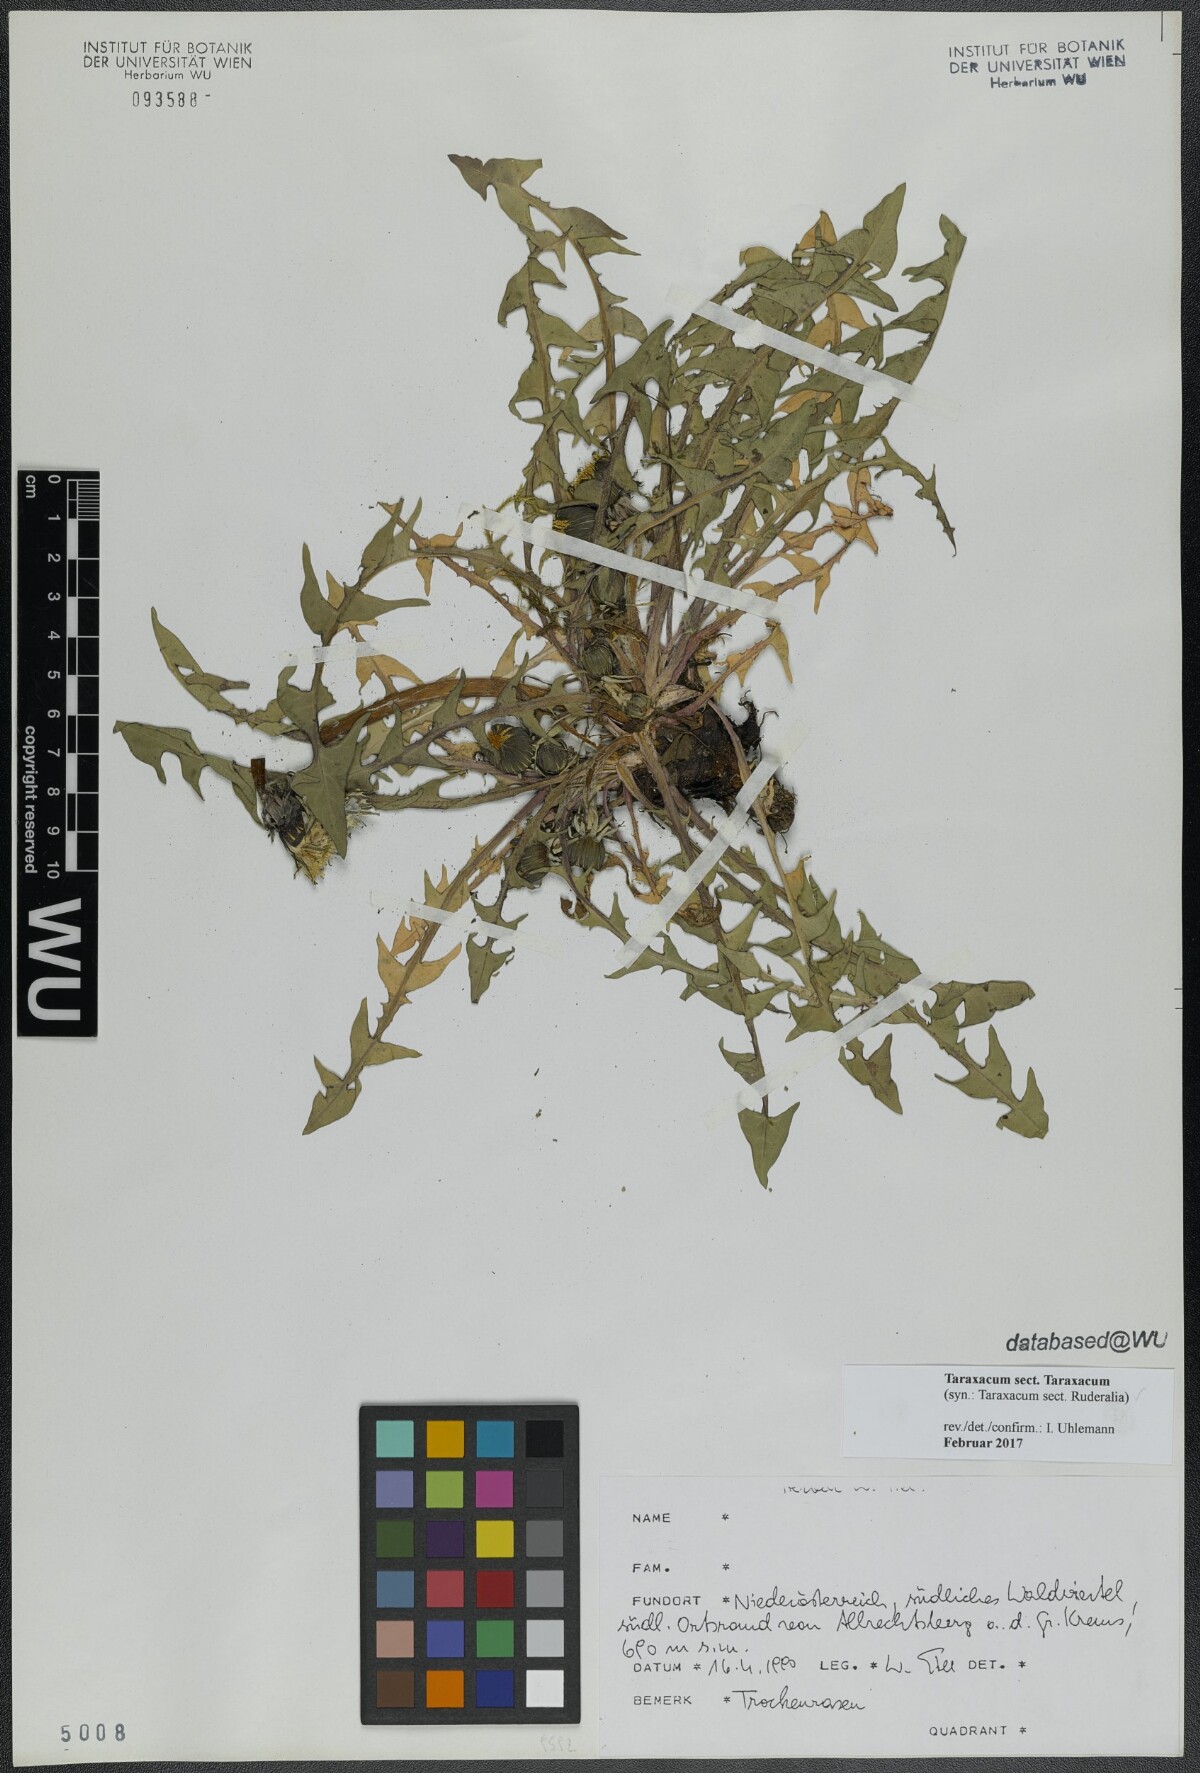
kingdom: Plantae
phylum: Tracheophyta
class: Magnoliopsida
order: Asterales
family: Asteraceae
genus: Taraxacum
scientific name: Taraxacum
